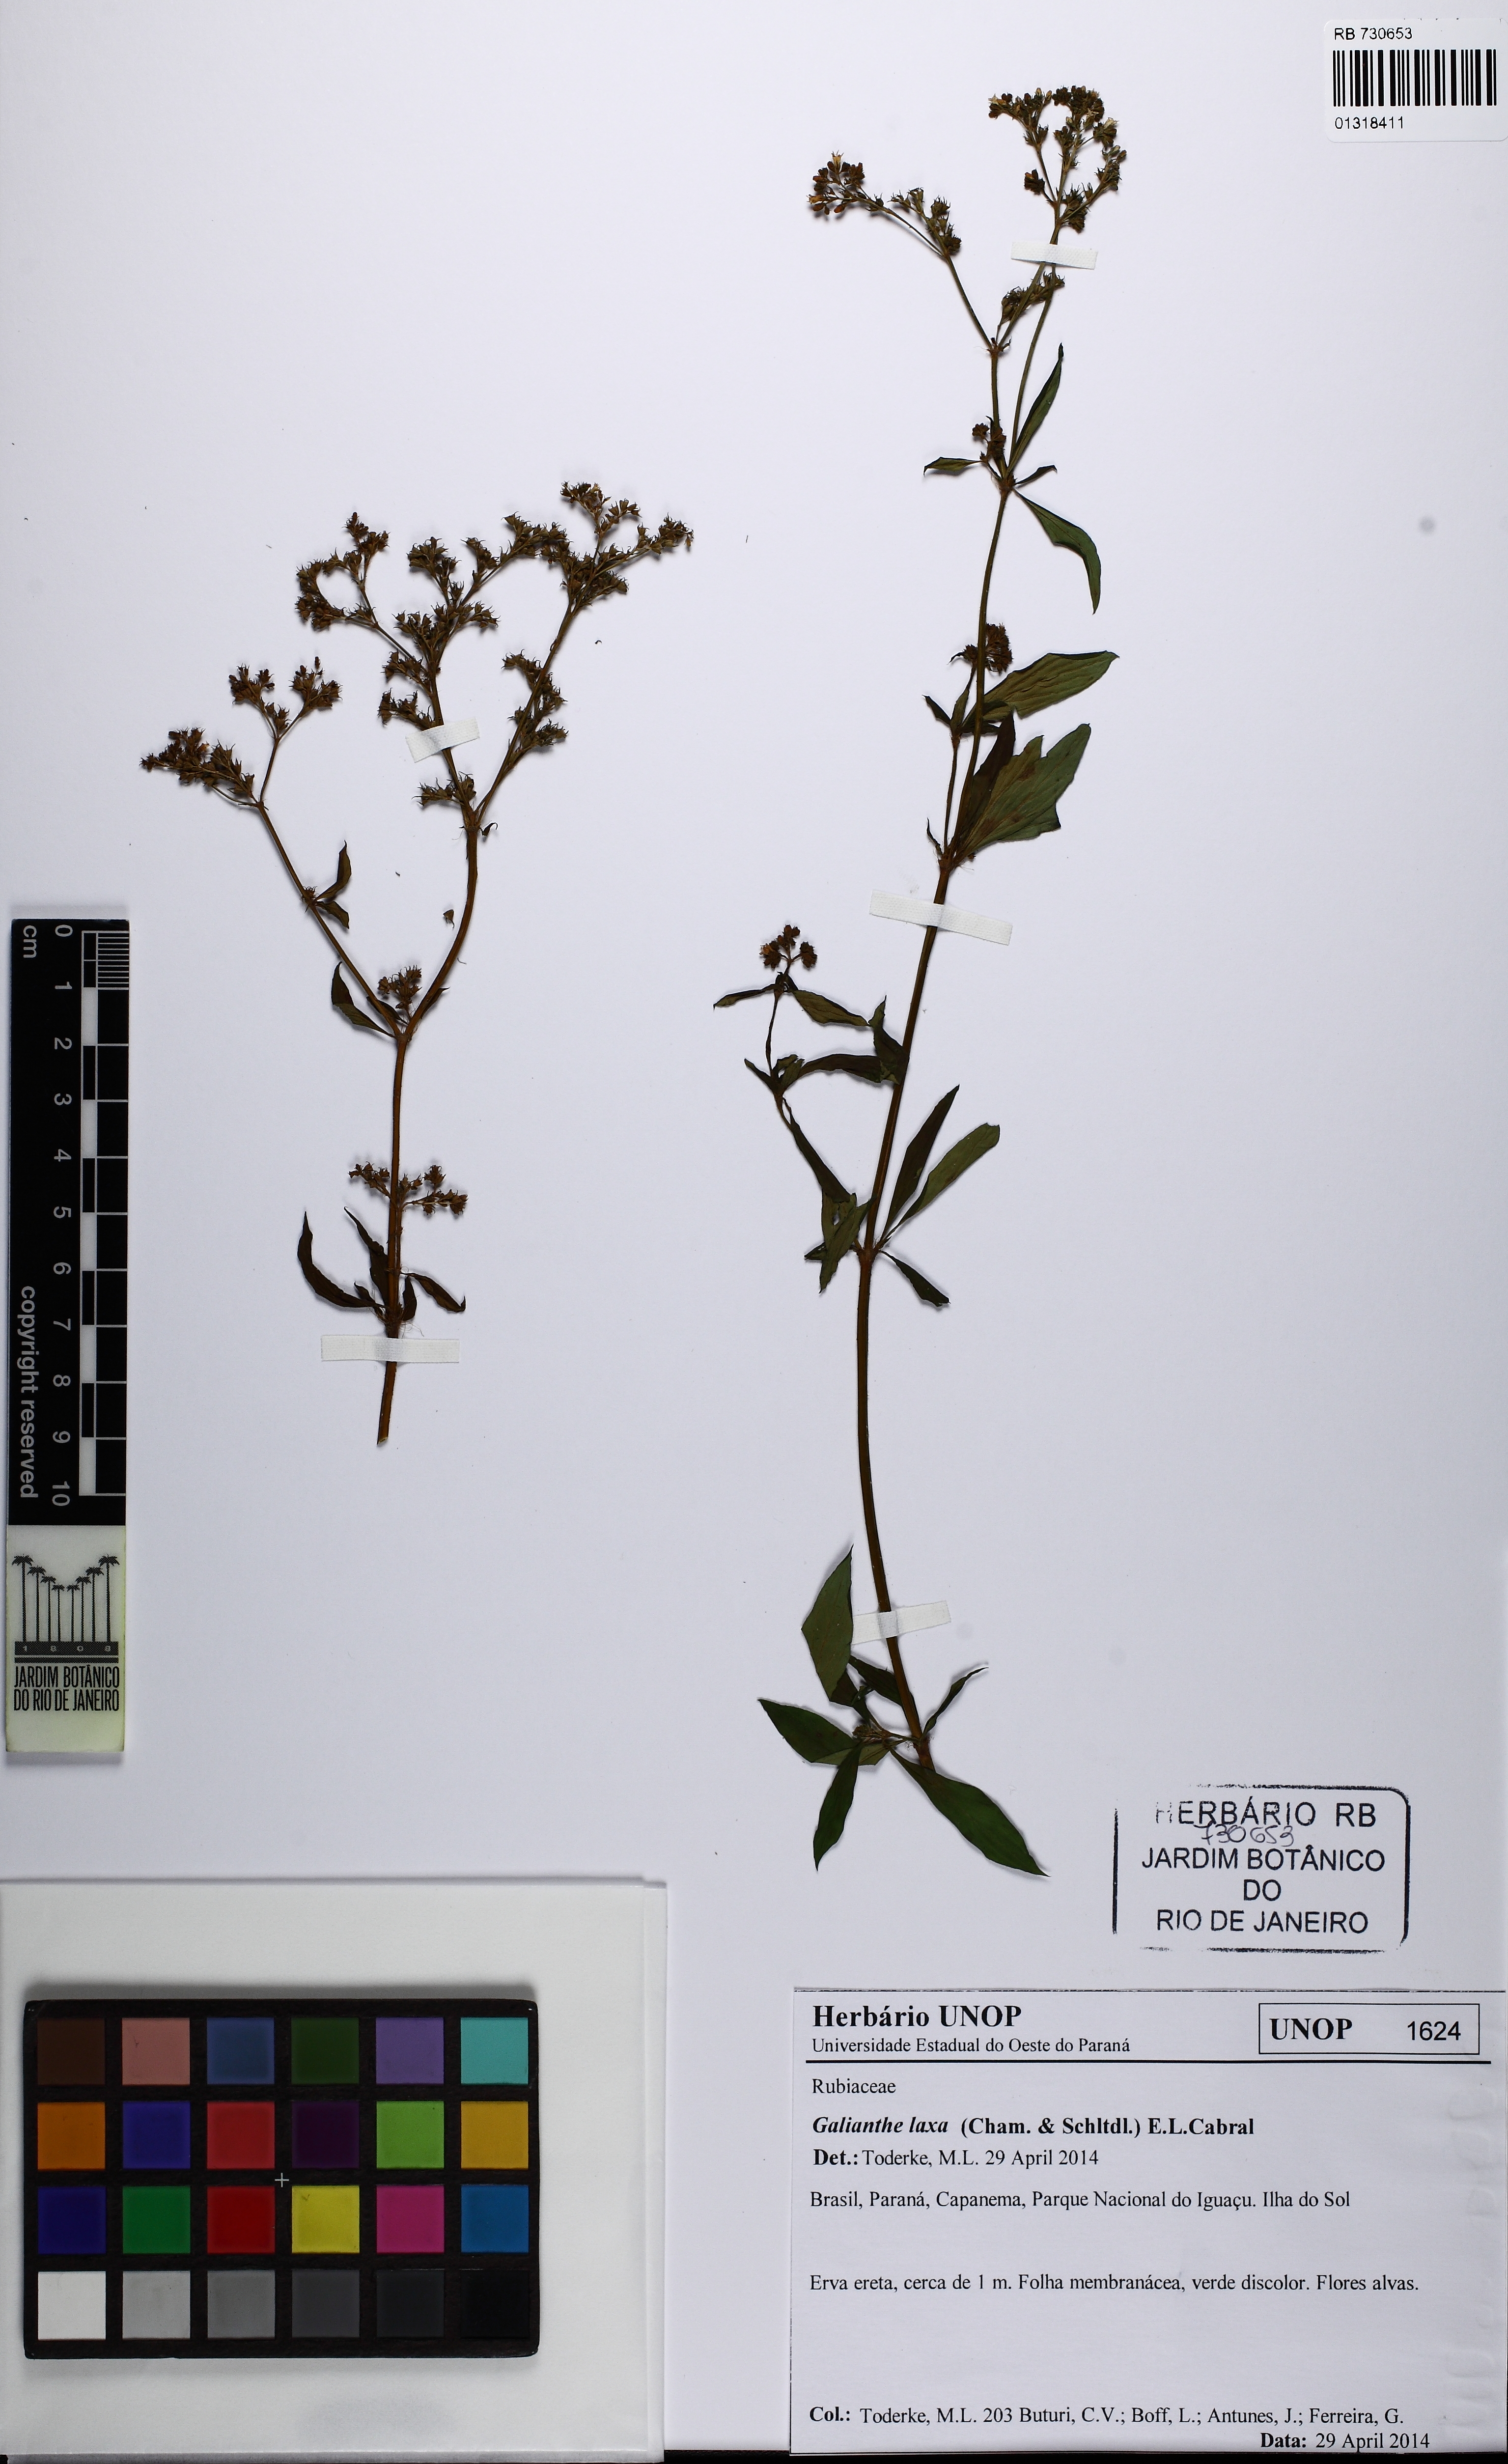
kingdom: Plantae
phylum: Tracheophyta
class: Magnoliopsida
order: Gentianales
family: Rubiaceae
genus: Galianthe
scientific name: Galianthe laxa
